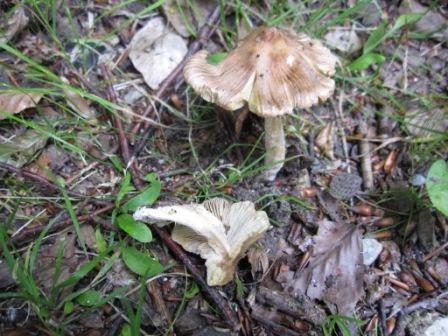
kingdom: Fungi
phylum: Basidiomycota
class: Agaricomycetes
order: Agaricales
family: Inocybaceae
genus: Pseudosperma
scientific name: Pseudosperma rimosum
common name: gulbladet trævlhat
